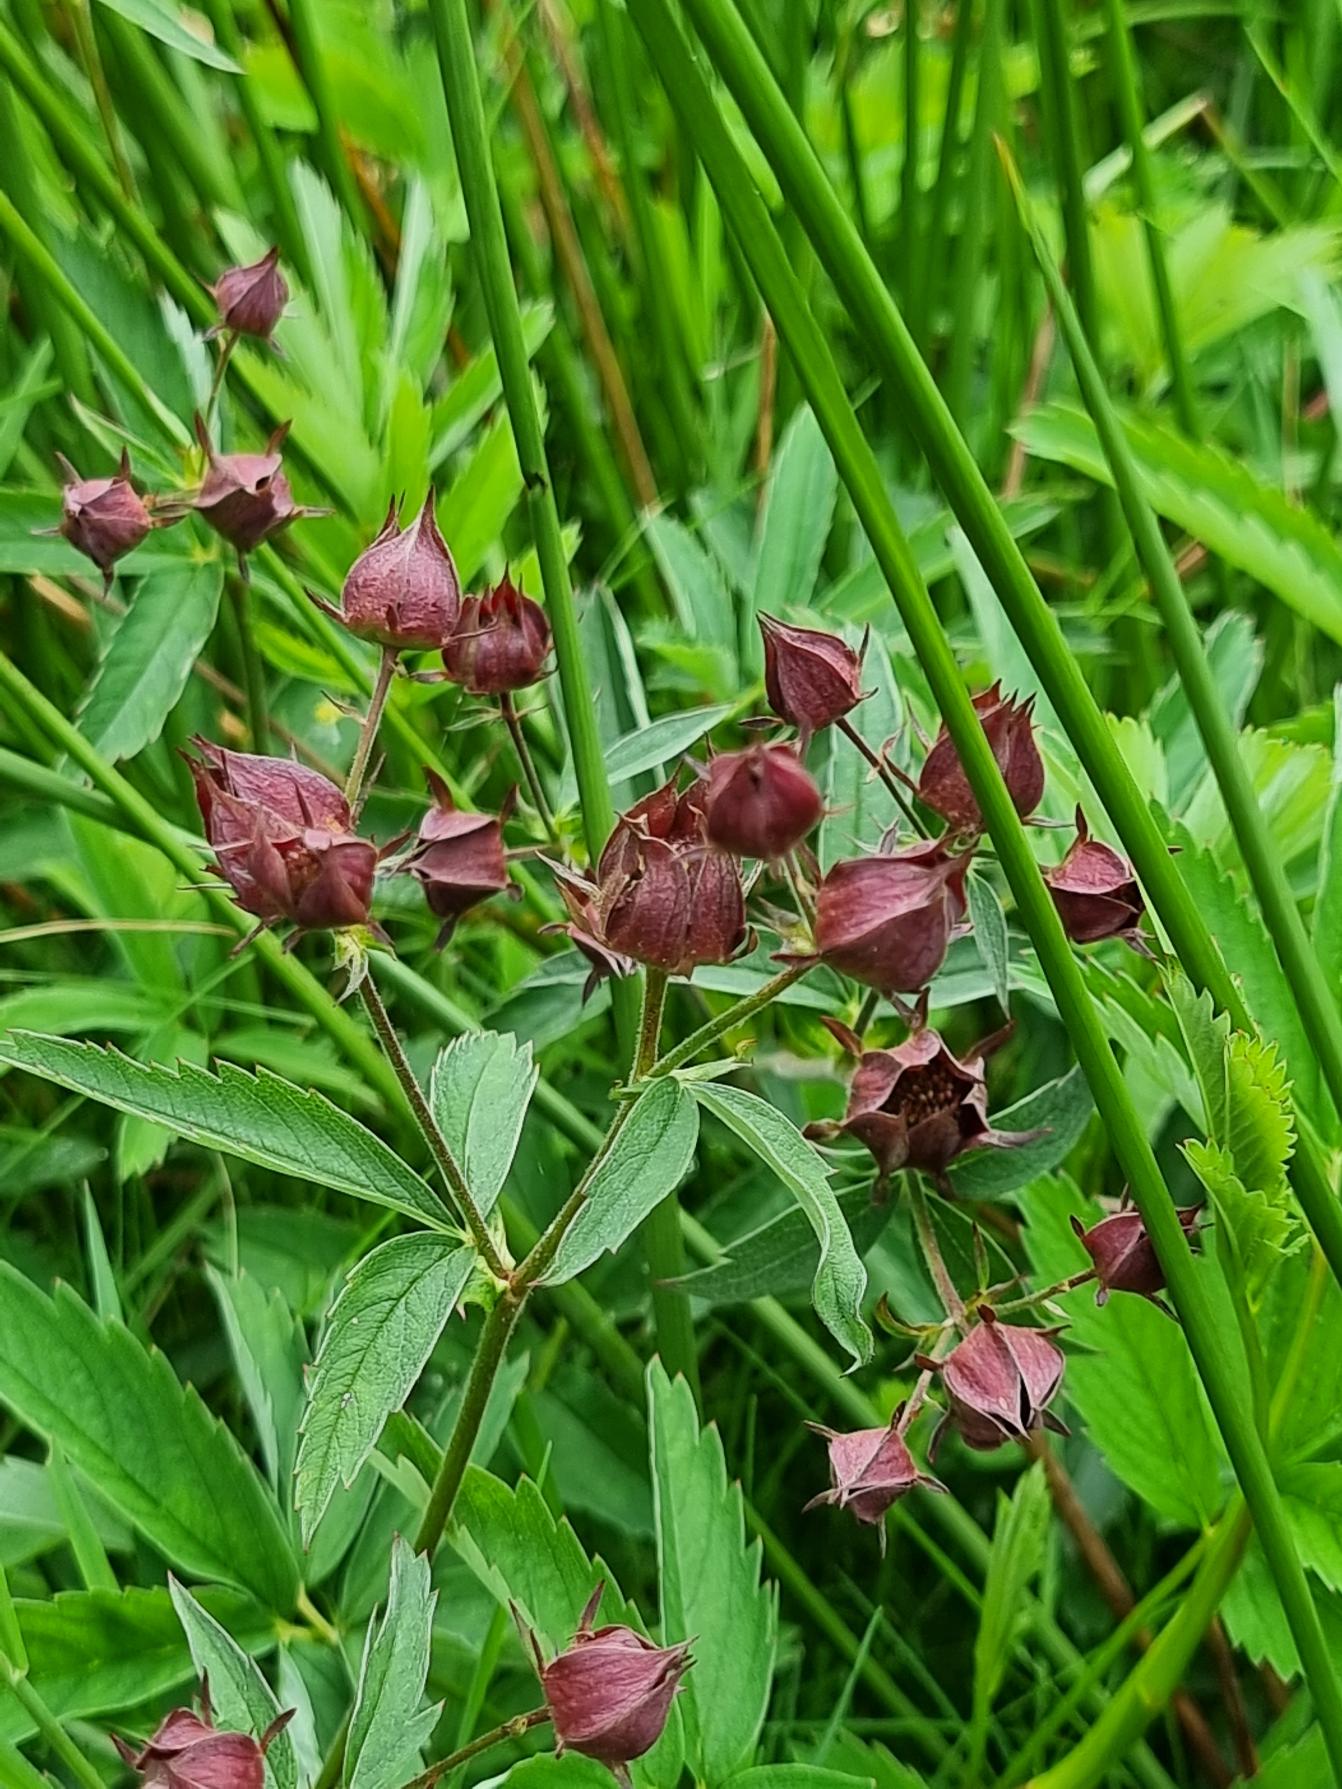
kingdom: Plantae
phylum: Tracheophyta
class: Magnoliopsida
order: Rosales
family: Rosaceae
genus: Comarum
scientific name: Comarum palustre
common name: Kragefod
